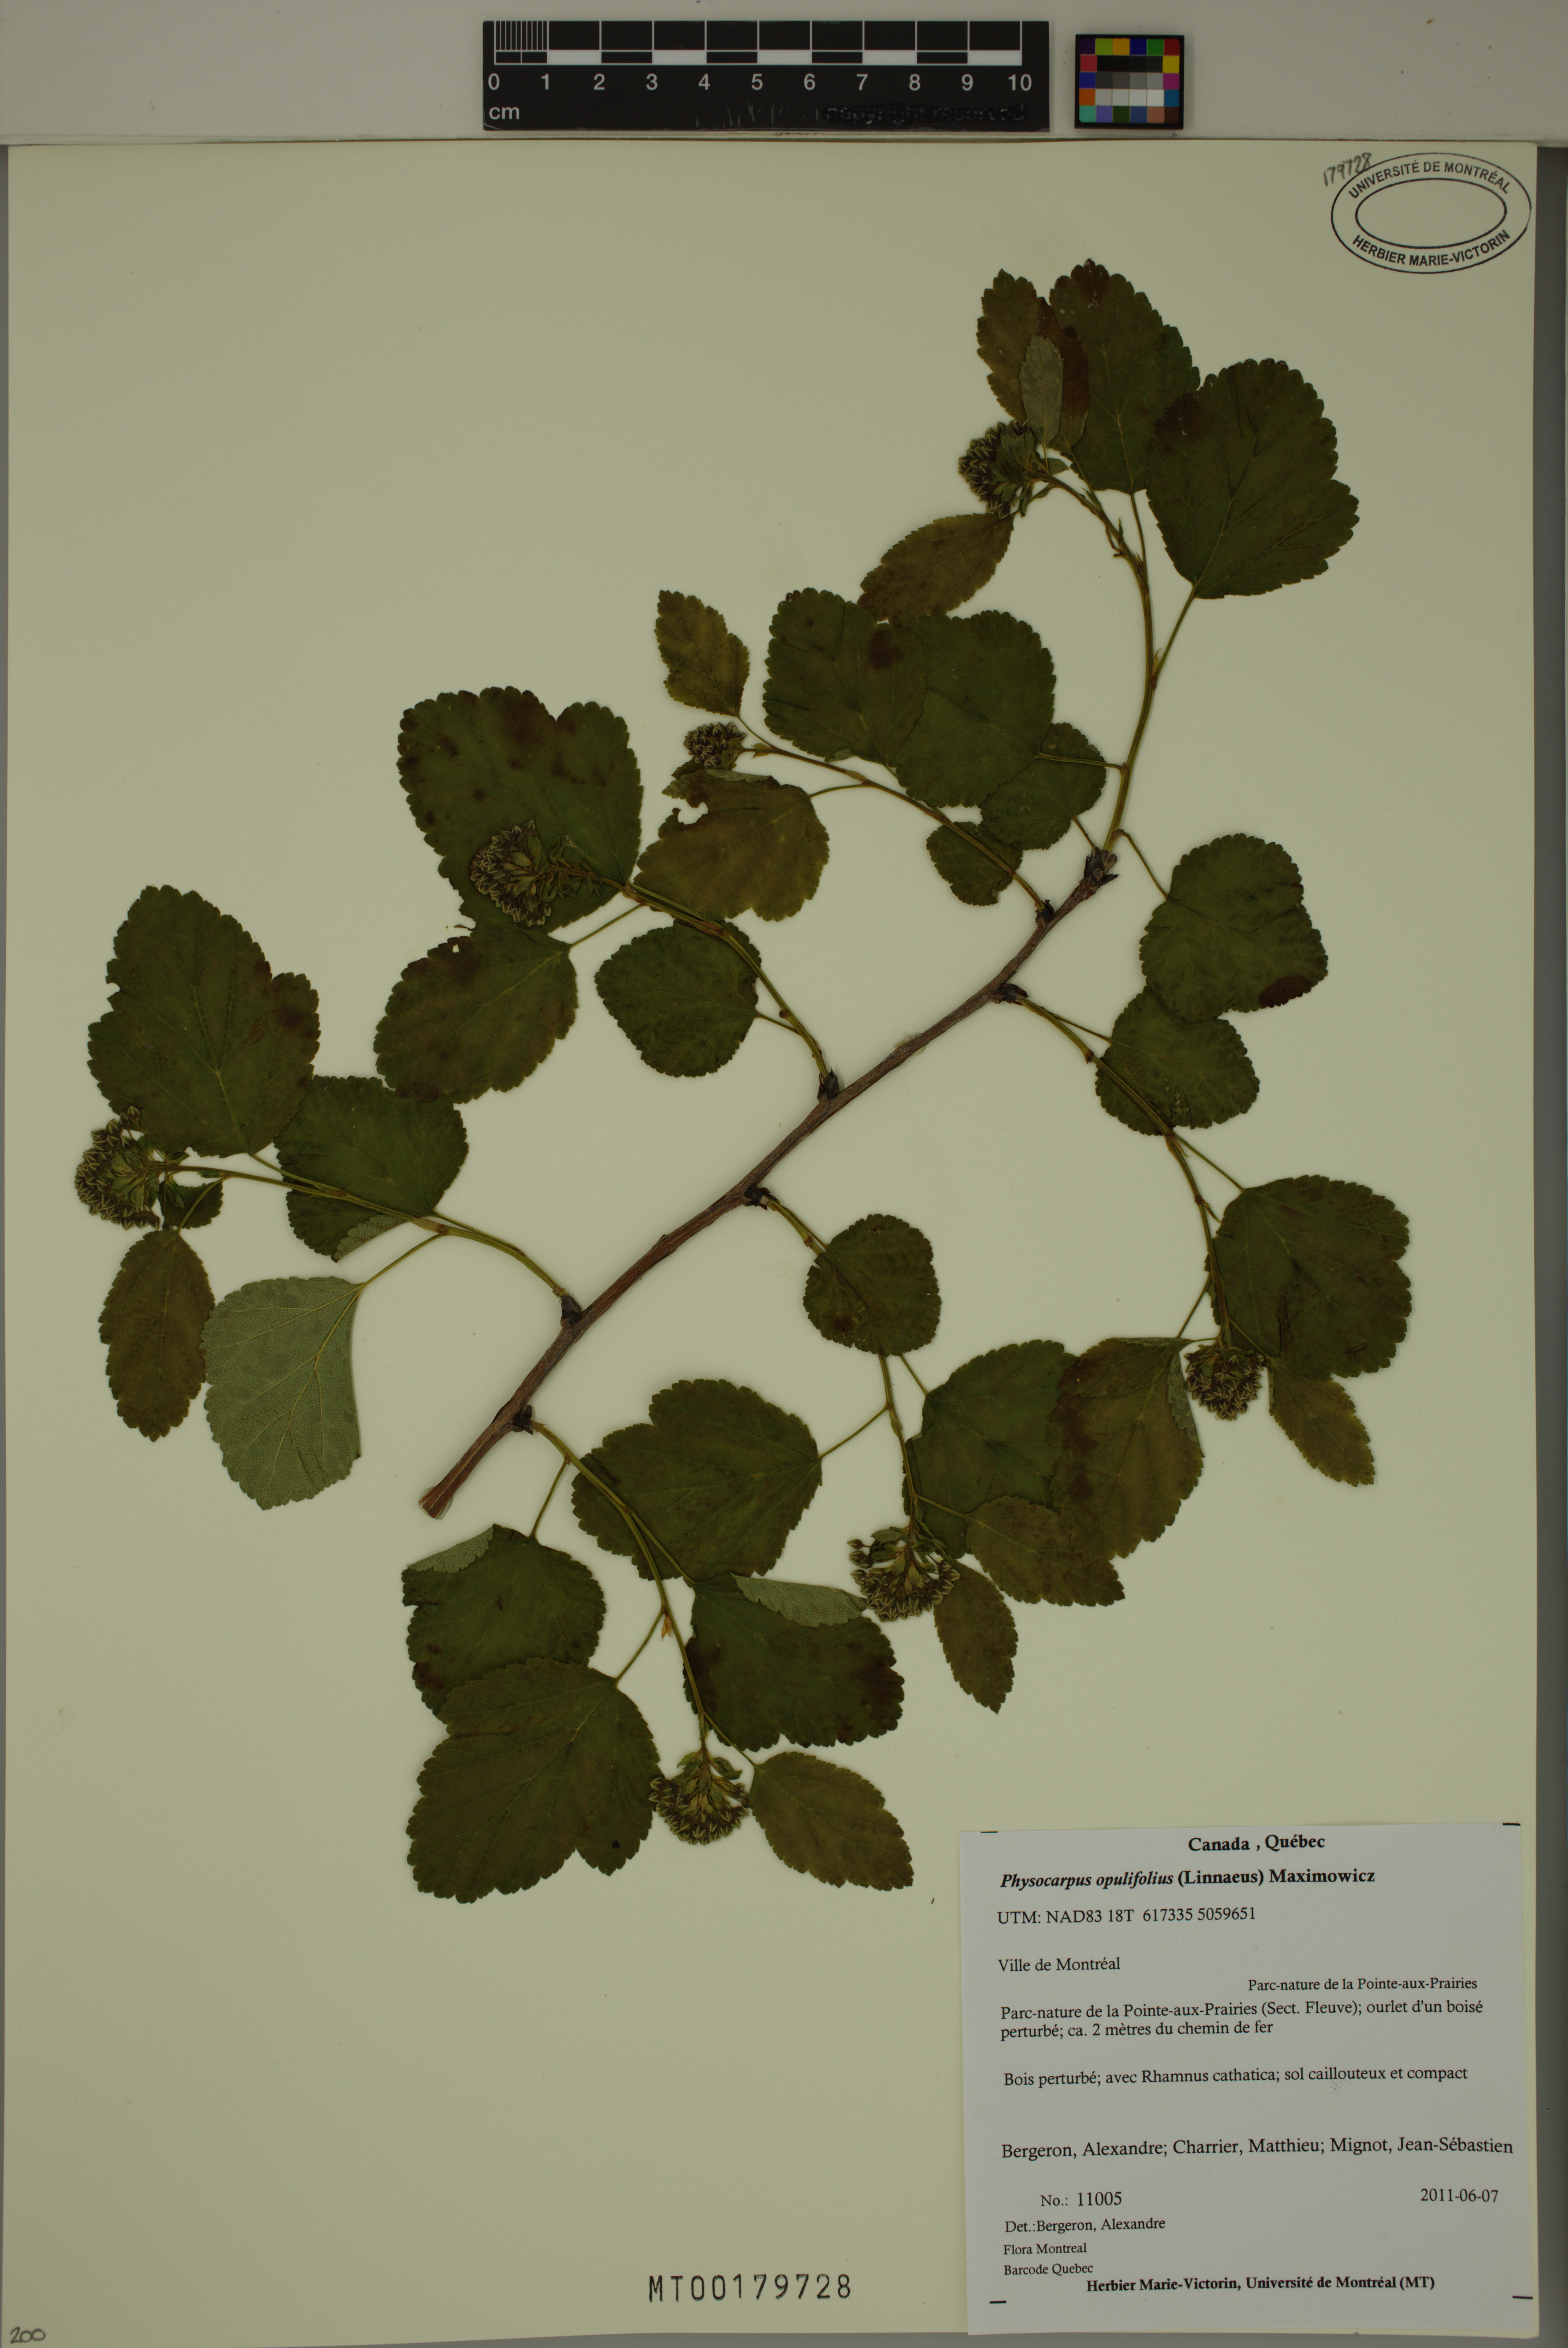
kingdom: Plantae
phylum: Tracheophyta
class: Magnoliopsida
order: Rosales
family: Rosaceae
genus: Physocarpus
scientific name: Physocarpus opulifolius
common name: Ninebark
